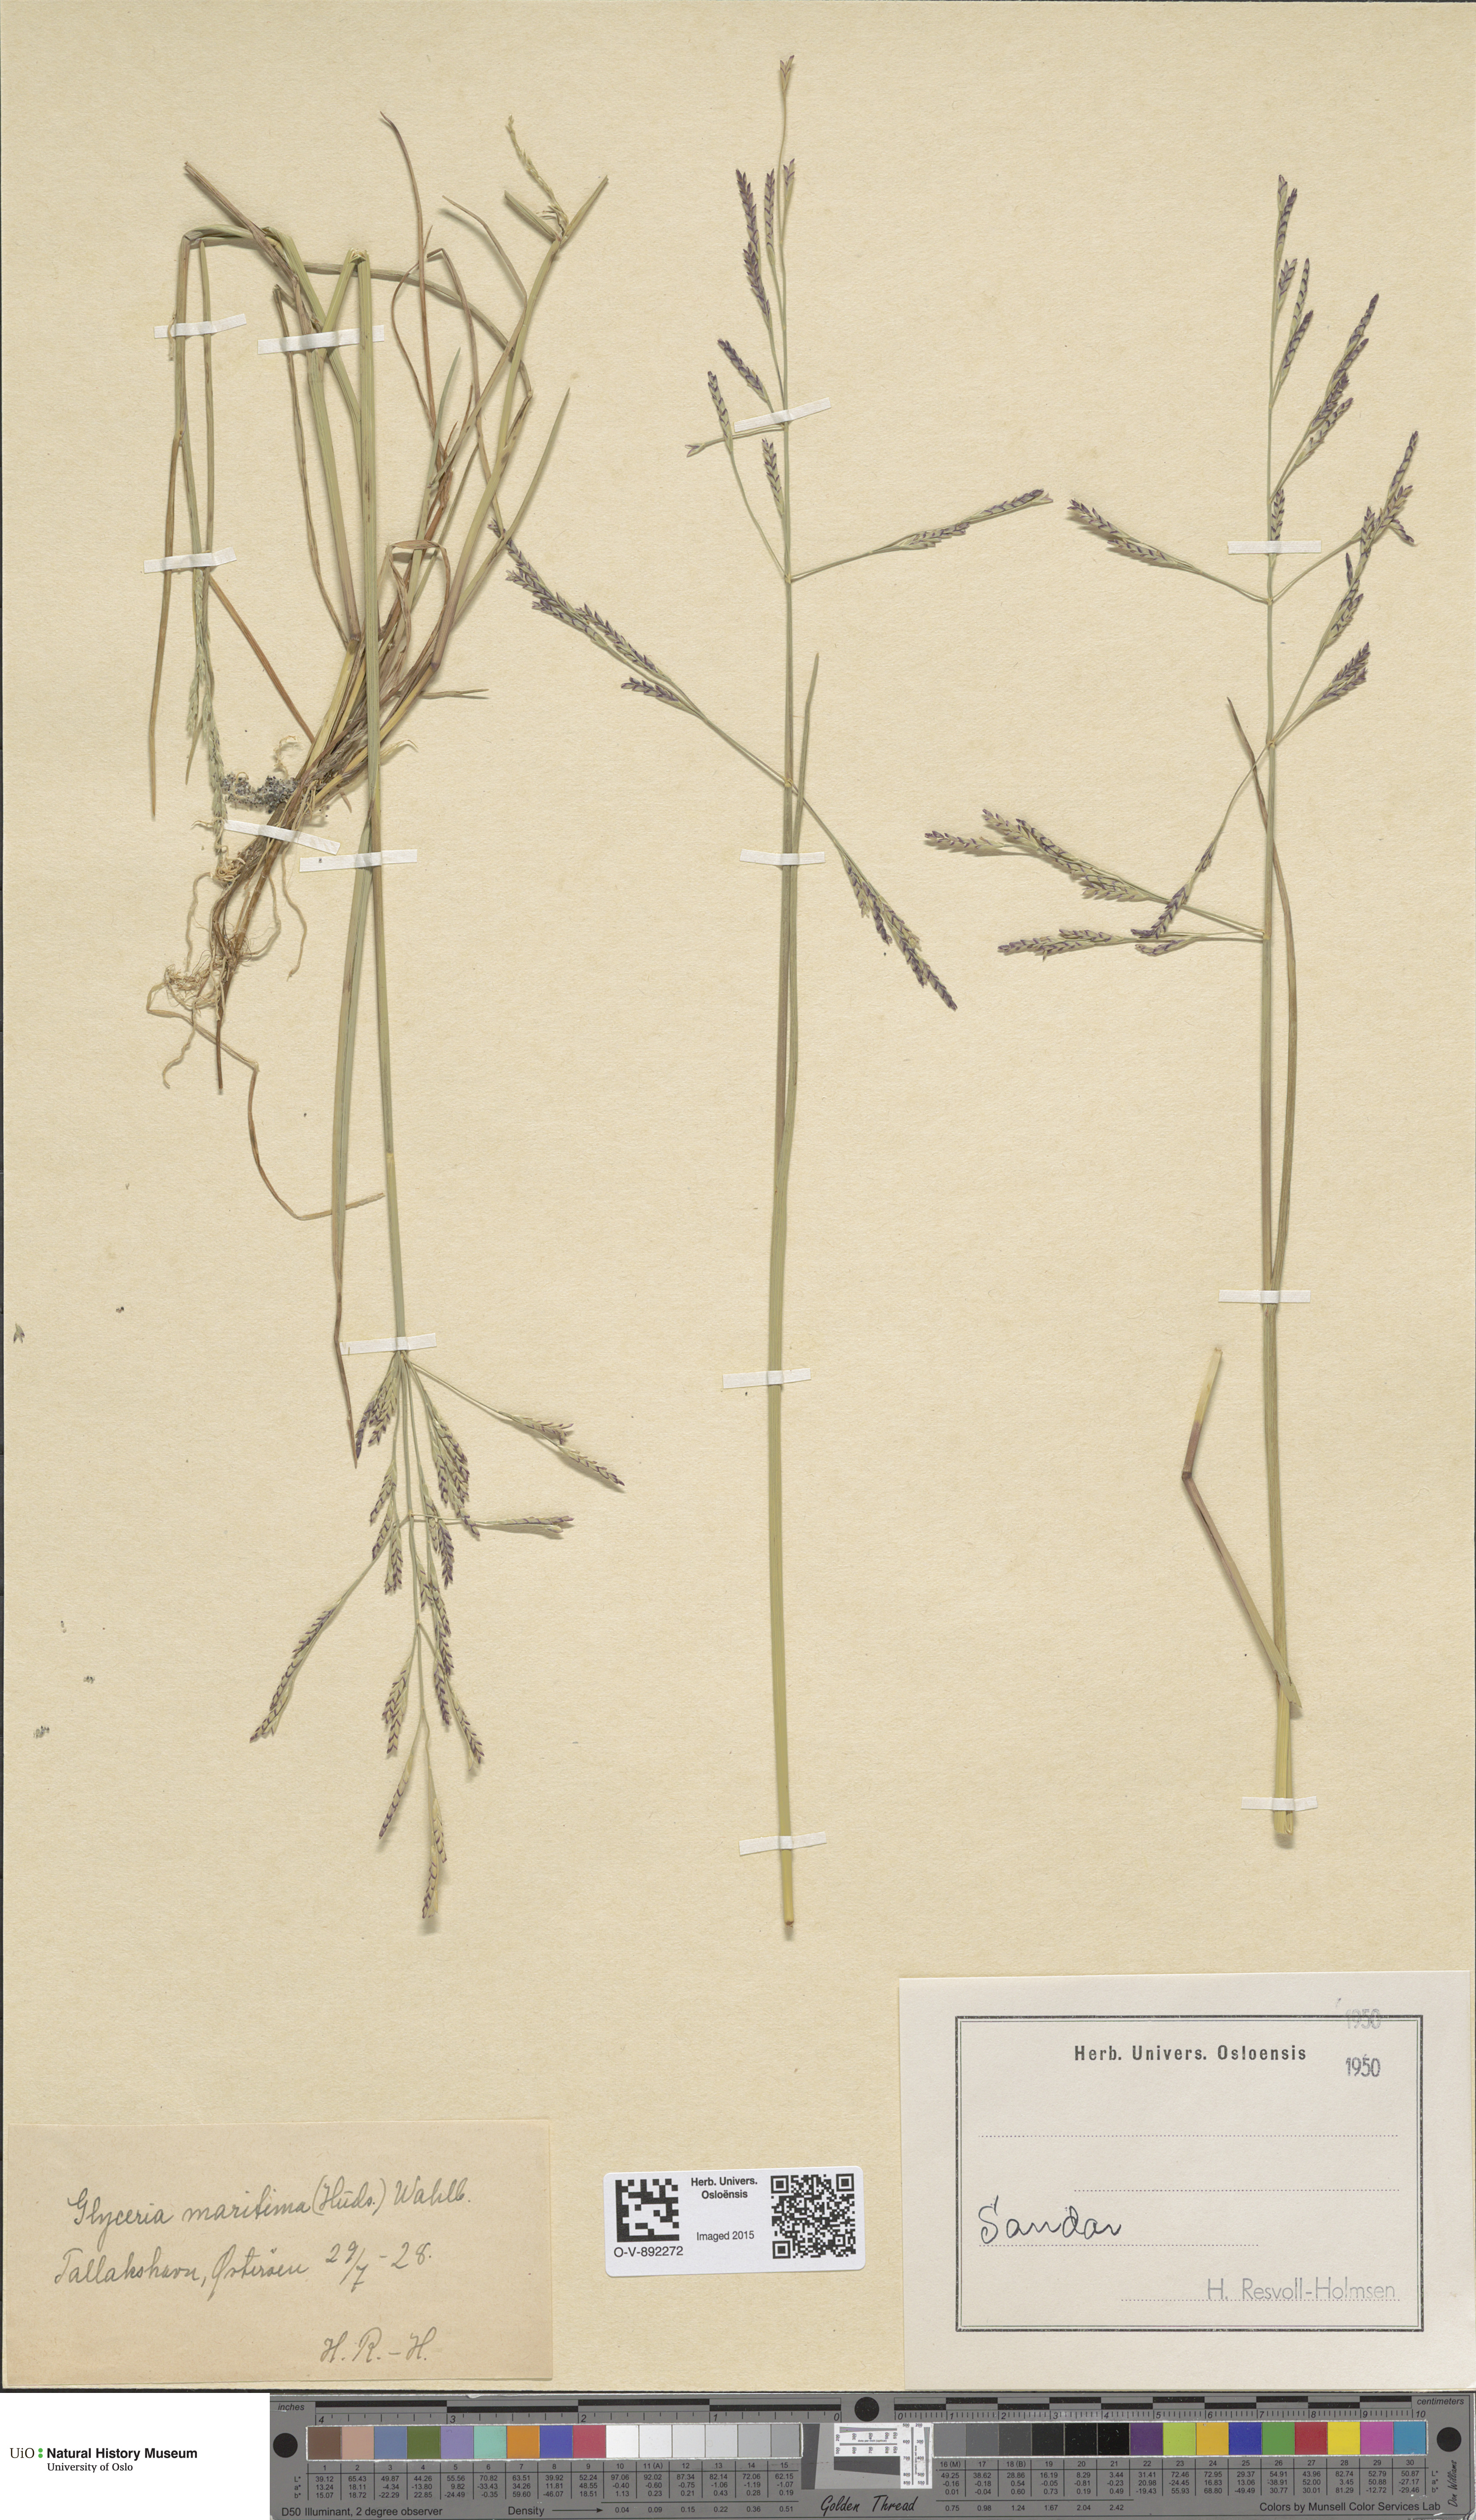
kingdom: Plantae
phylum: Tracheophyta
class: Liliopsida
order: Poales
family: Poaceae
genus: Puccinellia
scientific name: Puccinellia maritima
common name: Common saltmarsh grass
